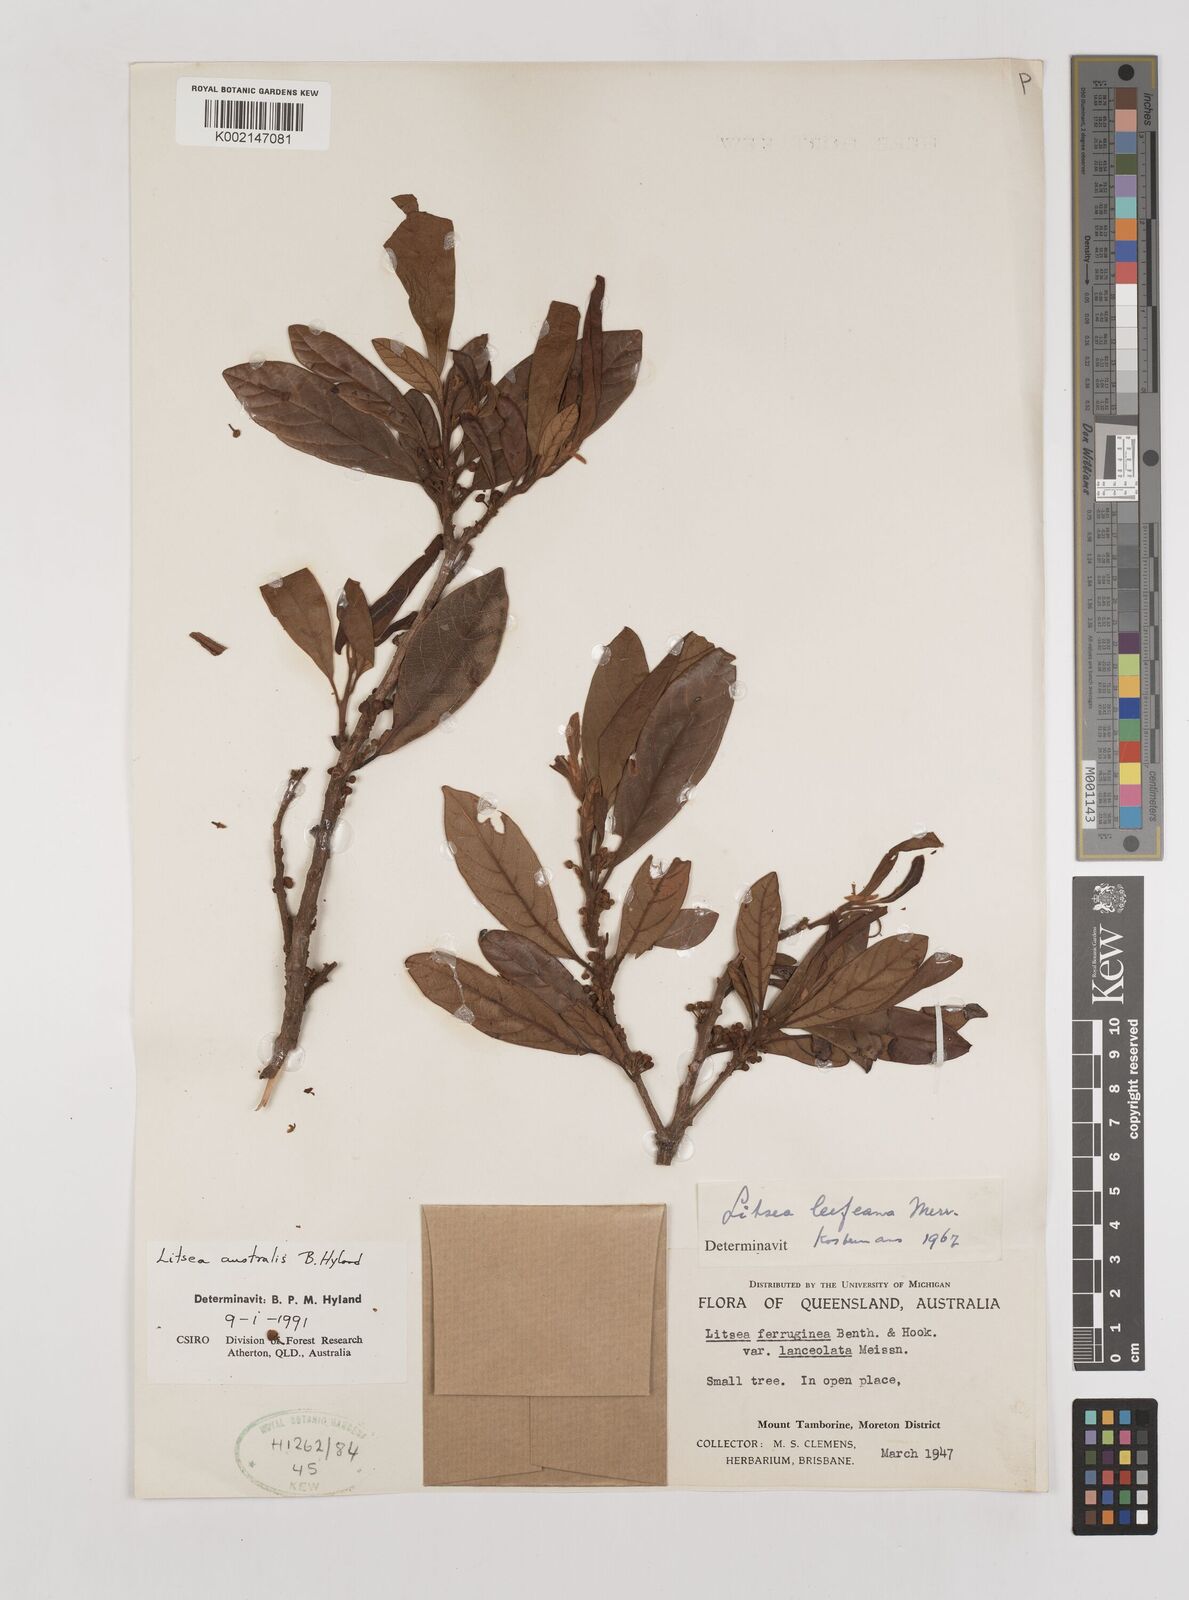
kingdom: Plantae
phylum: Tracheophyta
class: Magnoliopsida
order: Laurales
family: Lauraceae
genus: Litsea
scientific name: Litsea australis
